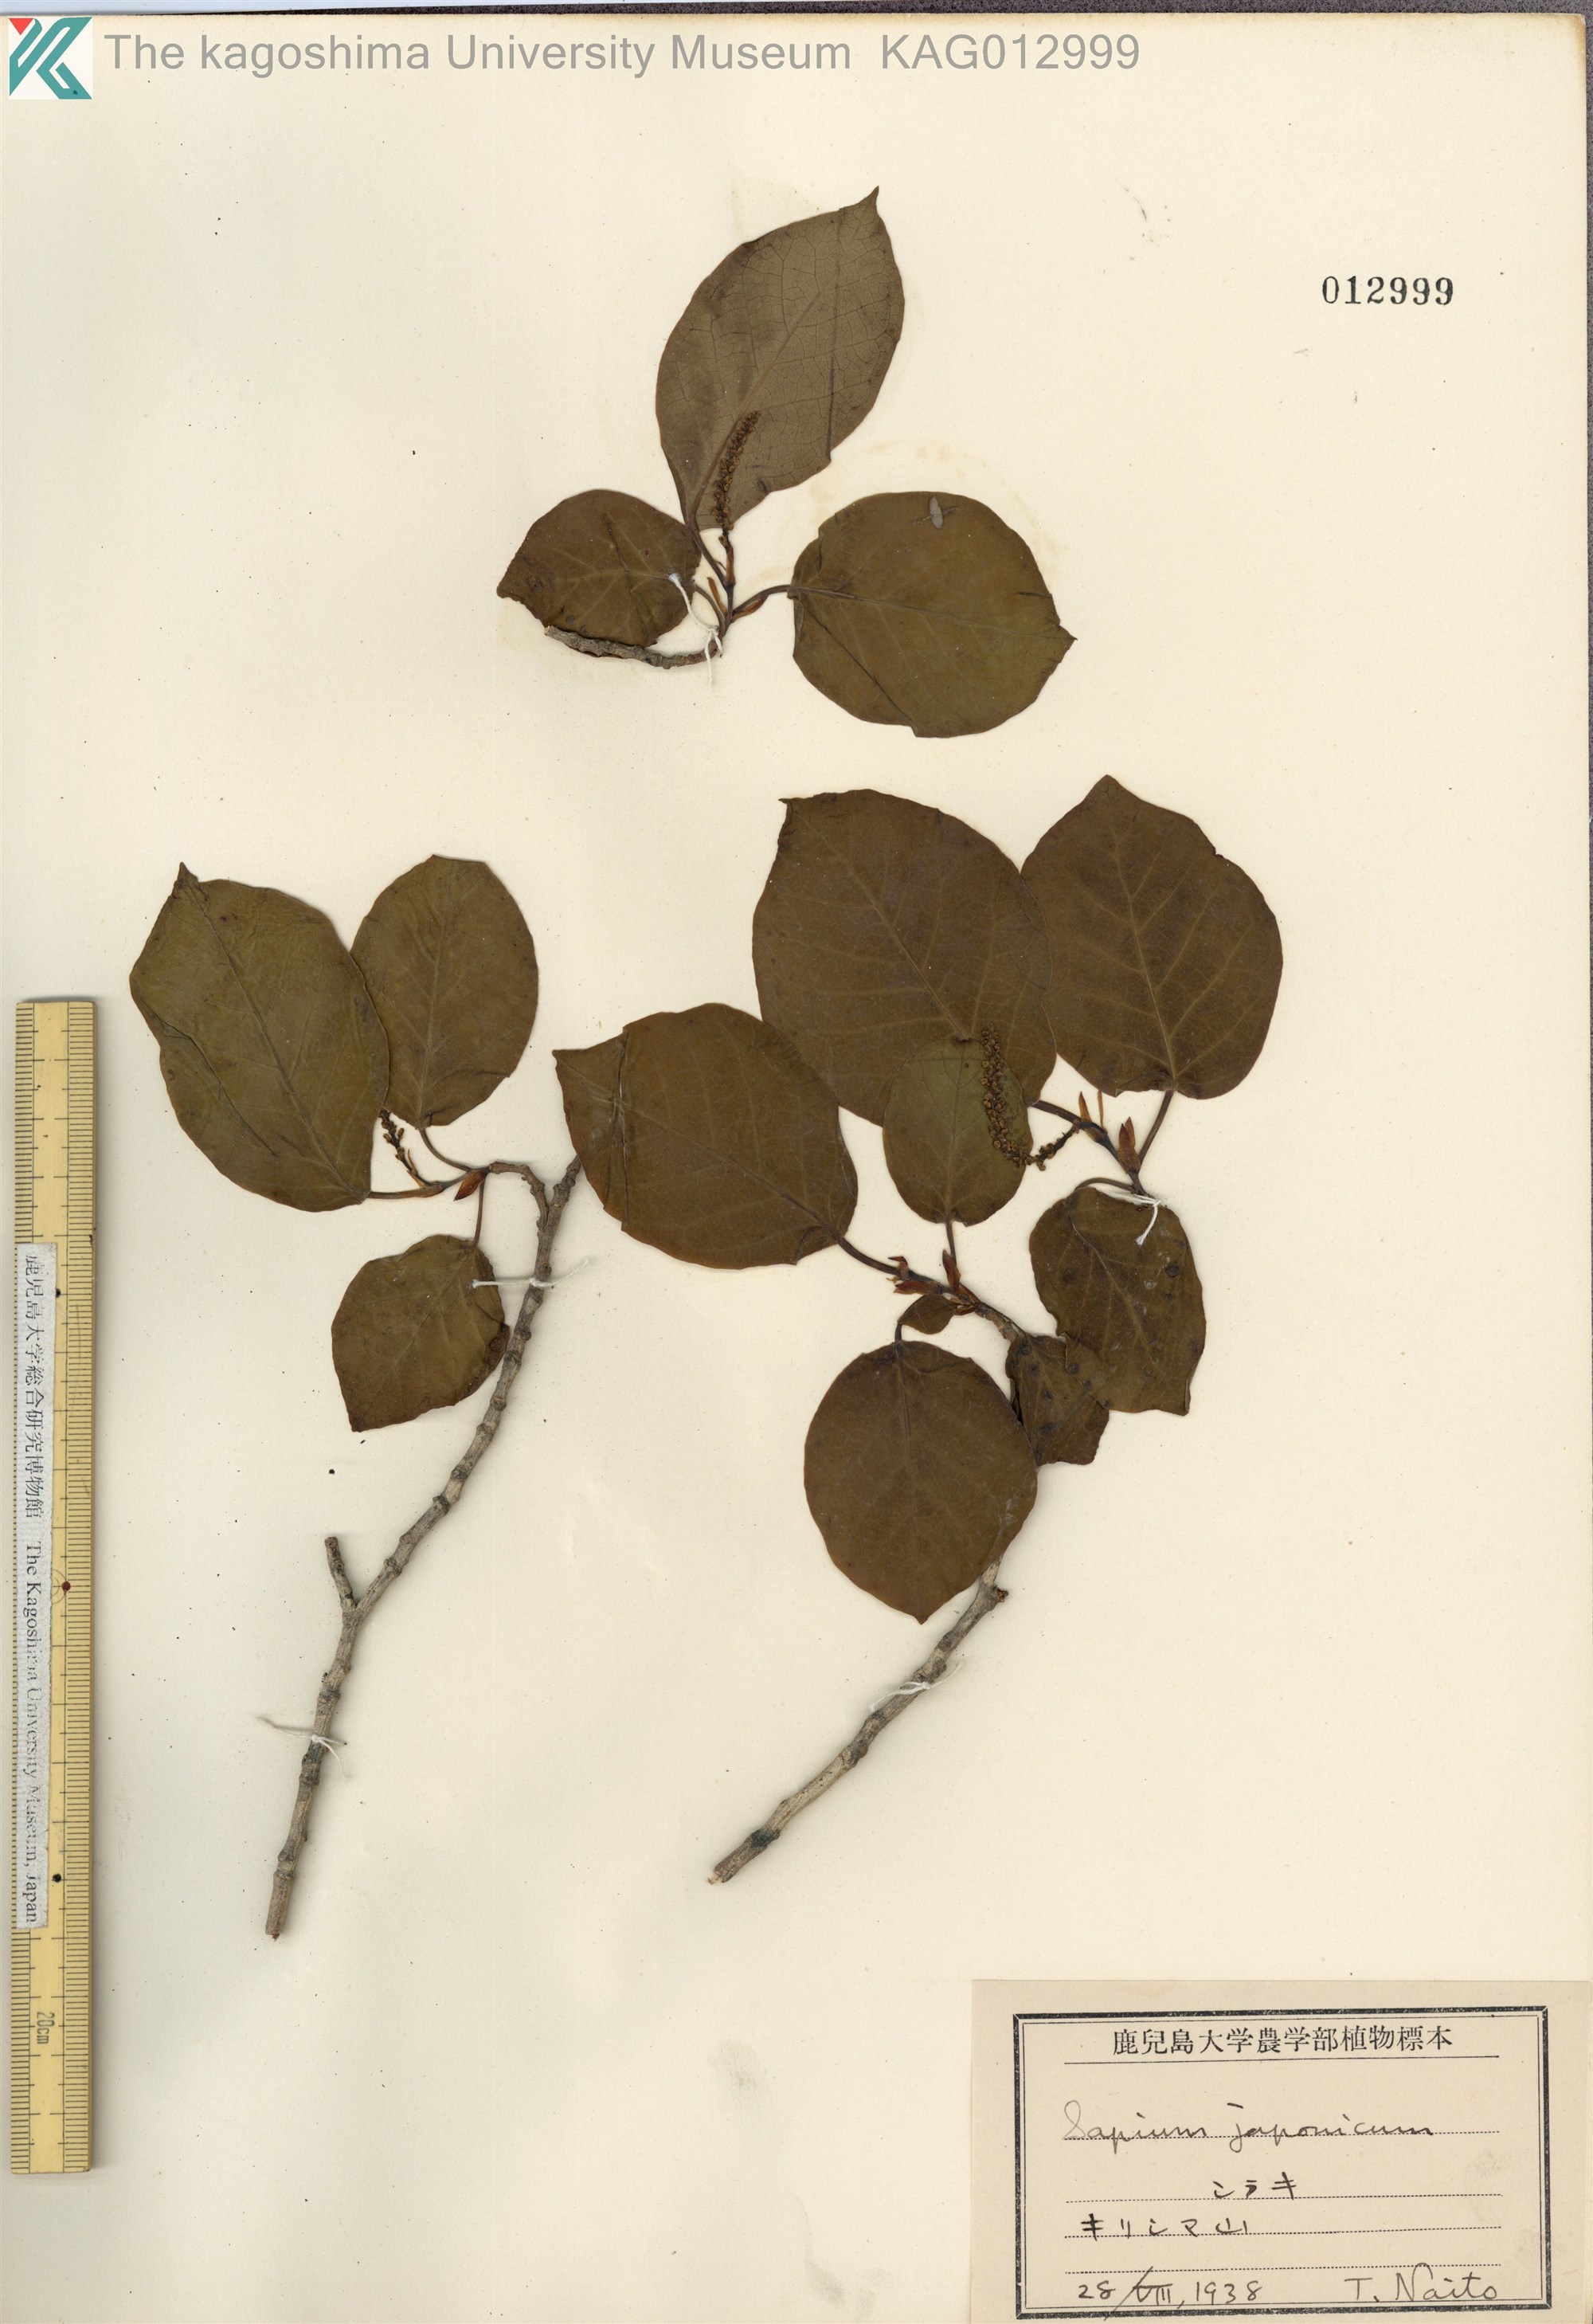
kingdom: Plantae
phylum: Tracheophyta
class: Magnoliopsida
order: Malpighiales
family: Euphorbiaceae
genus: Neoshirakia
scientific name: Neoshirakia japonica
